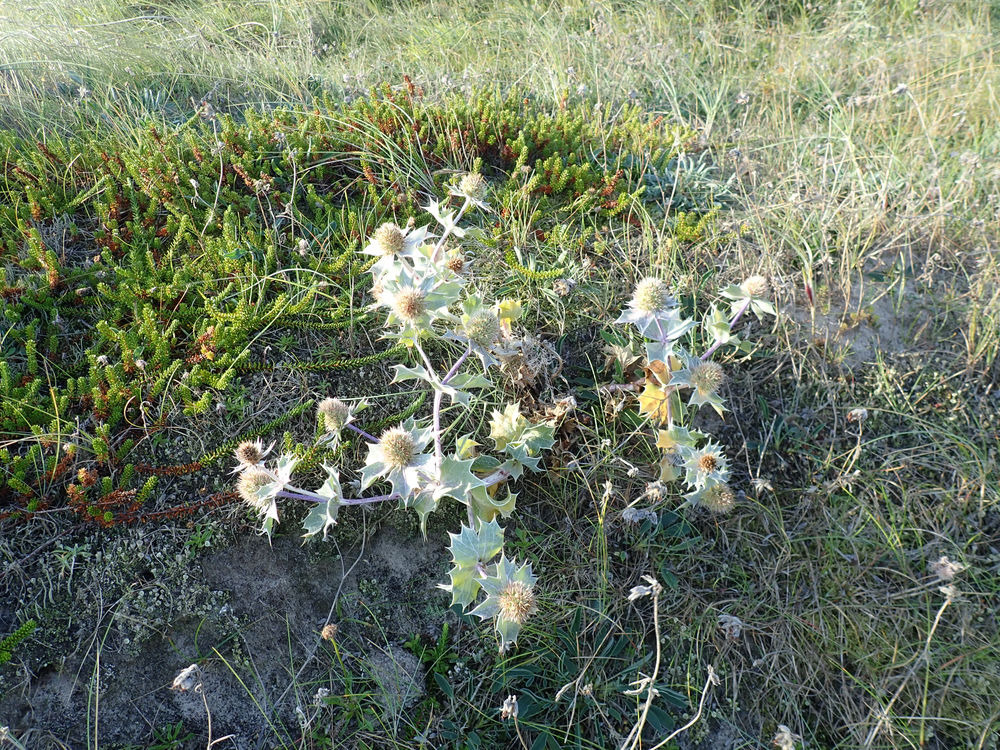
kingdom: Plantae
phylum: Tracheophyta
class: Magnoliopsida
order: Apiales
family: Apiaceae
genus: Eryngium
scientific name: Eryngium maritimum
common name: Strand-mandstro
